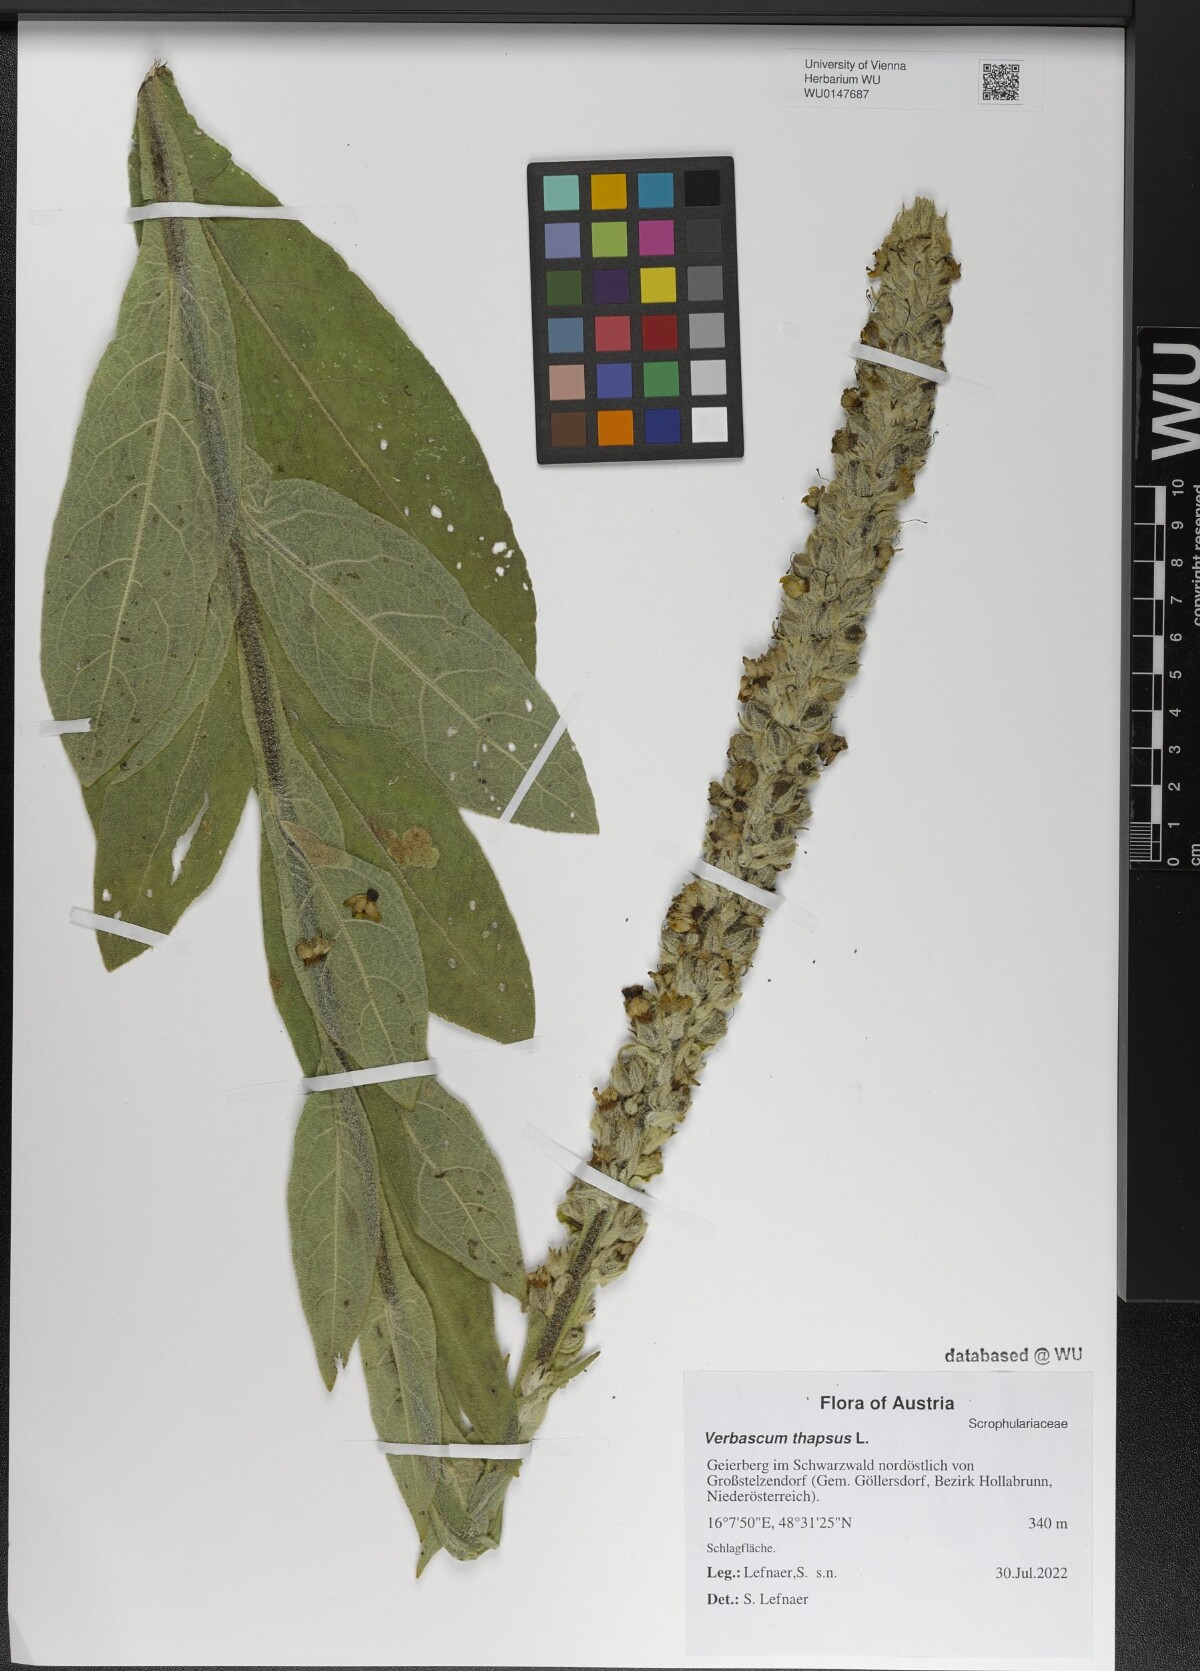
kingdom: Plantae
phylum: Tracheophyta
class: Magnoliopsida
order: Lamiales
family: Scrophulariaceae
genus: Verbascum
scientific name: Verbascum thapsus
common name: Common mullein
